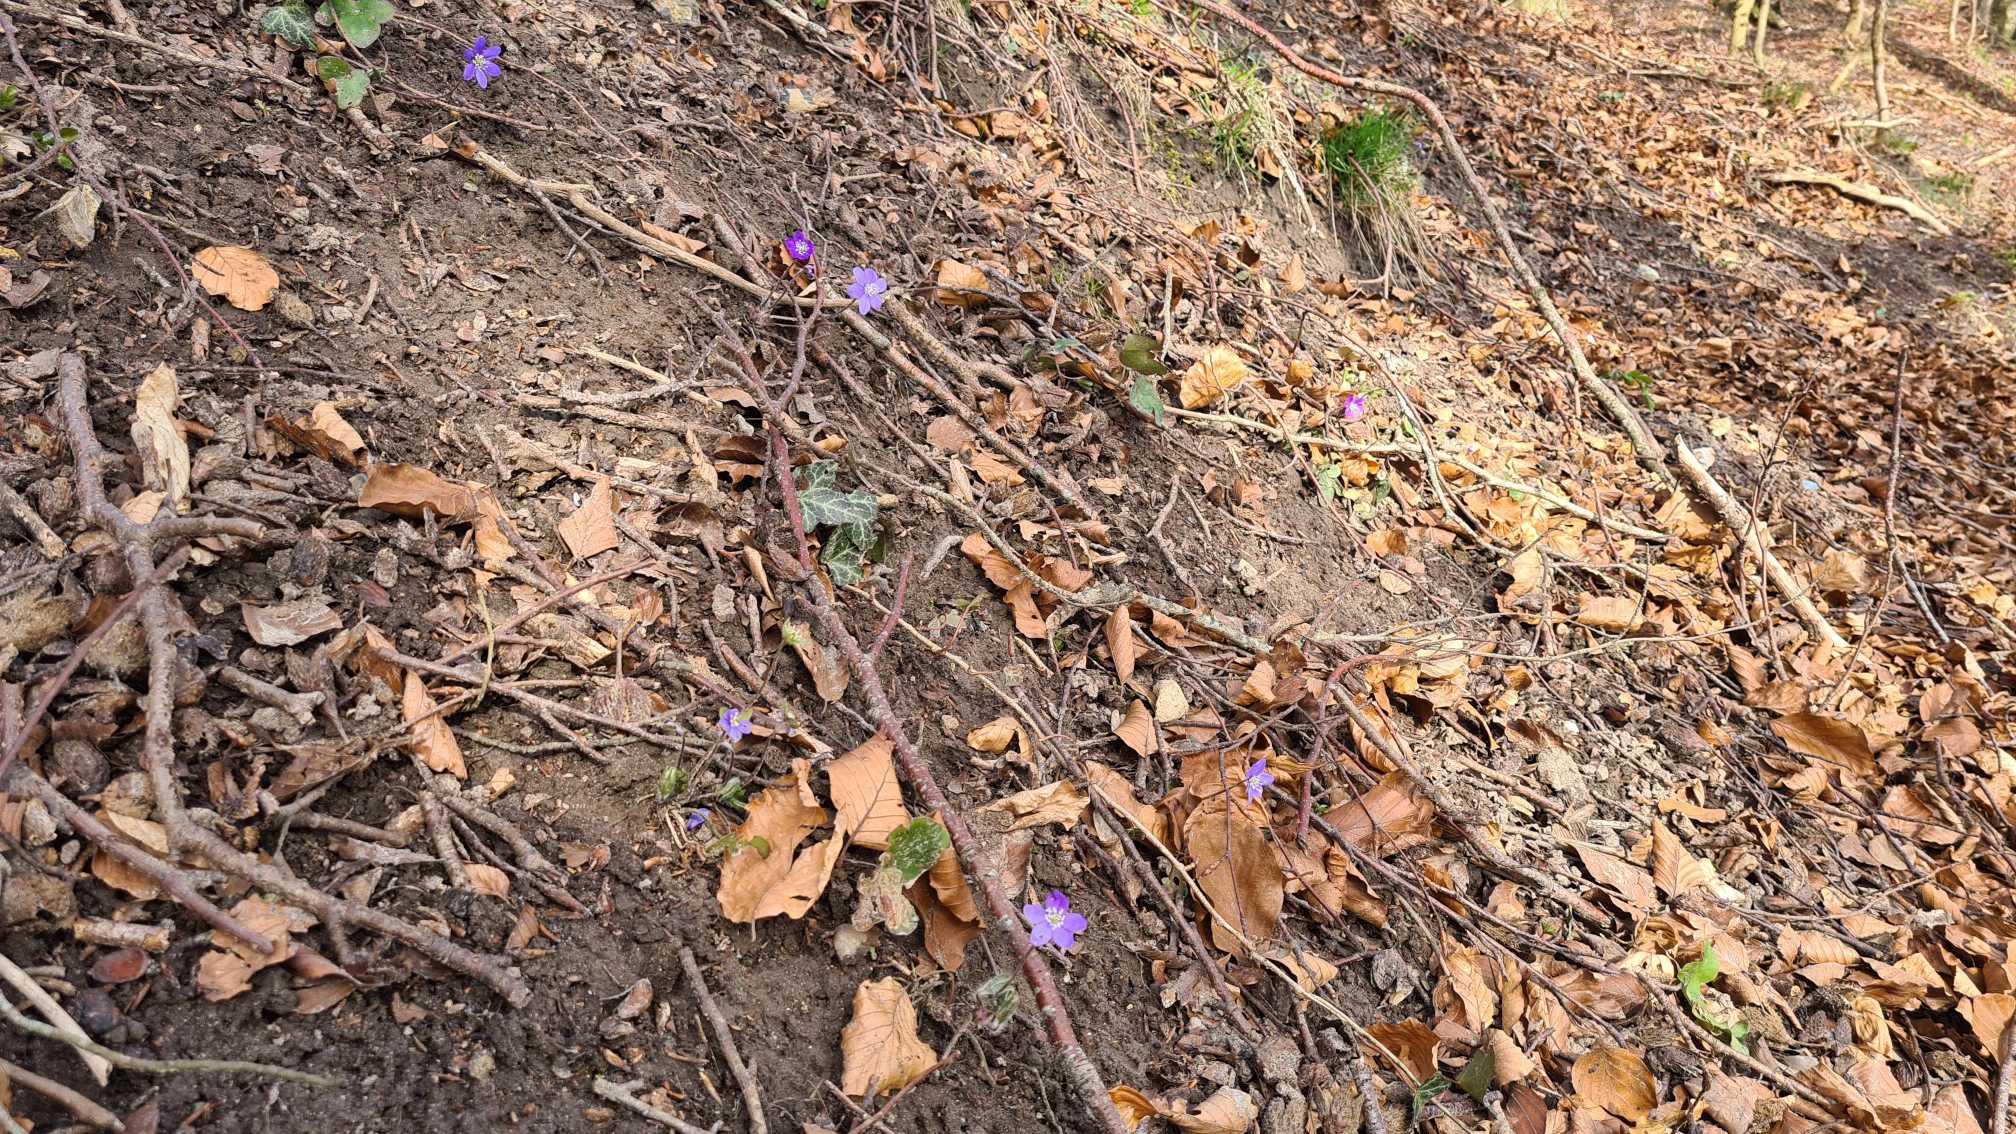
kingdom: Plantae
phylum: Tracheophyta
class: Magnoliopsida
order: Ranunculales
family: Ranunculaceae
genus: Hepatica
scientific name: Hepatica nobilis
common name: Blå anemone
